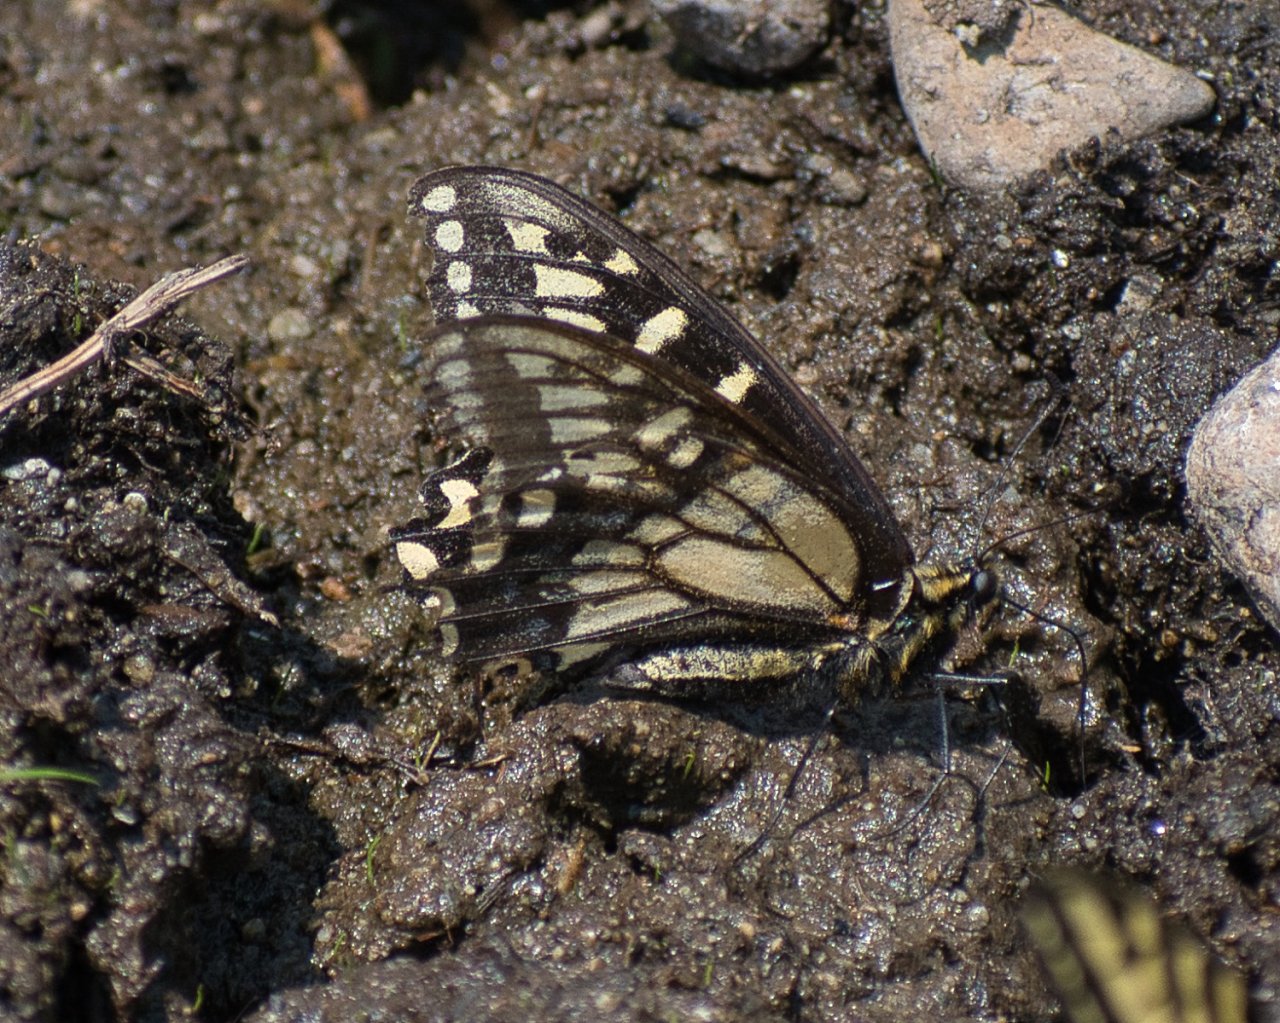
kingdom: Animalia
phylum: Arthropoda
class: Insecta
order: Lepidoptera
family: Papilionidae
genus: Papilio
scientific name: Papilio zelicaon
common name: Anise Swallowtail
